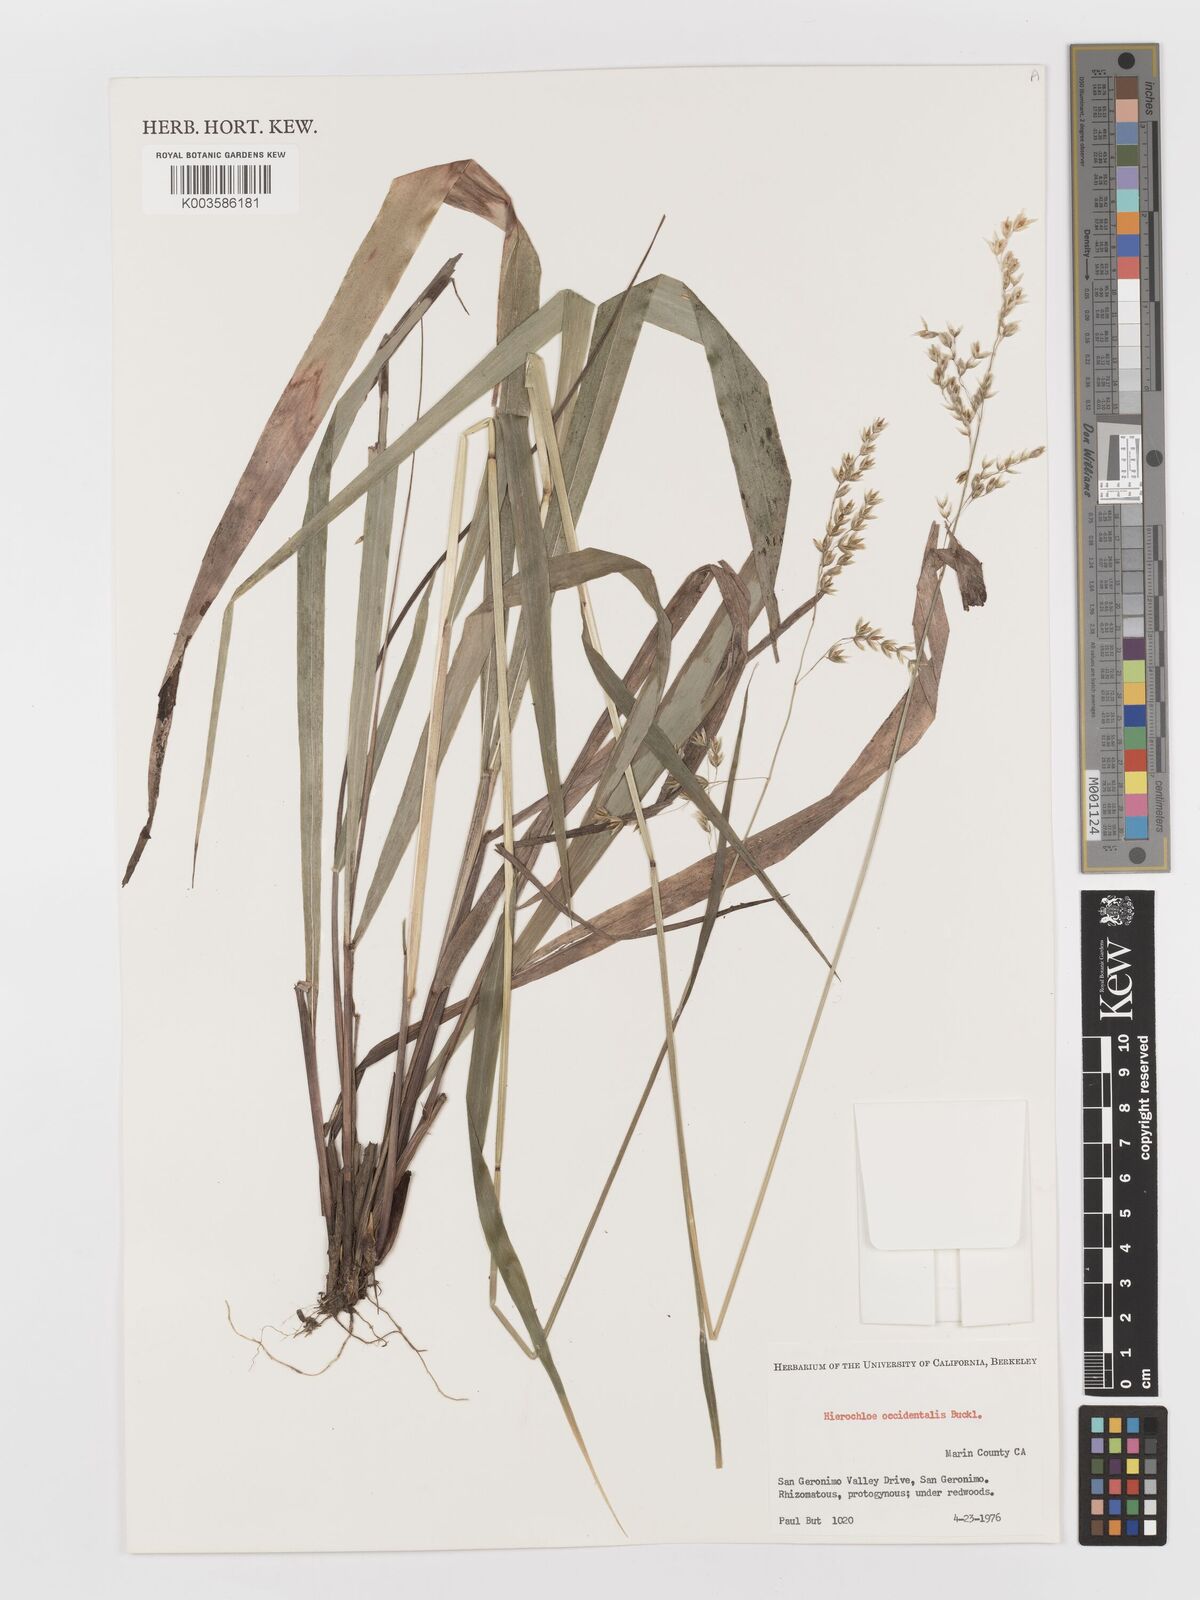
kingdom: Plantae
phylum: Tracheophyta
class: Liliopsida
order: Poales
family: Poaceae
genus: Anthoxanthum
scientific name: Anthoxanthum occidentale
